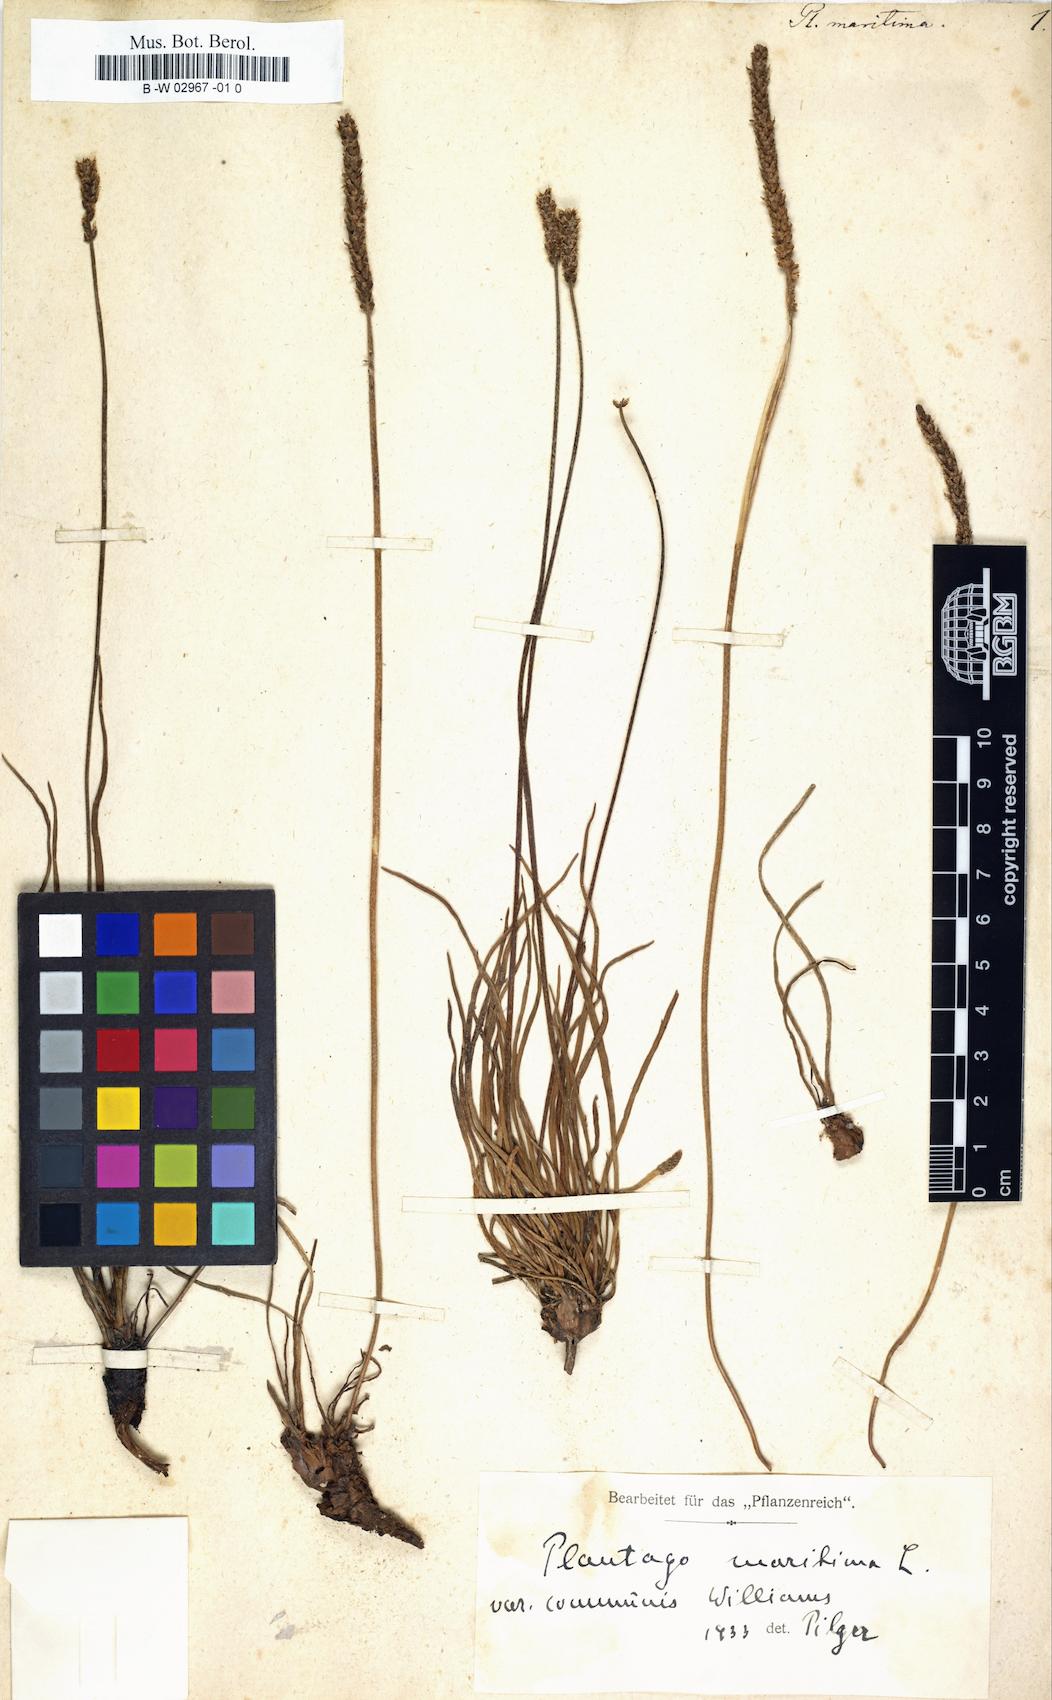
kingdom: Plantae
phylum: Tracheophyta
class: Magnoliopsida
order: Lamiales
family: Plantaginaceae
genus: Plantago
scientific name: Plantago maritima
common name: Sea plantain
